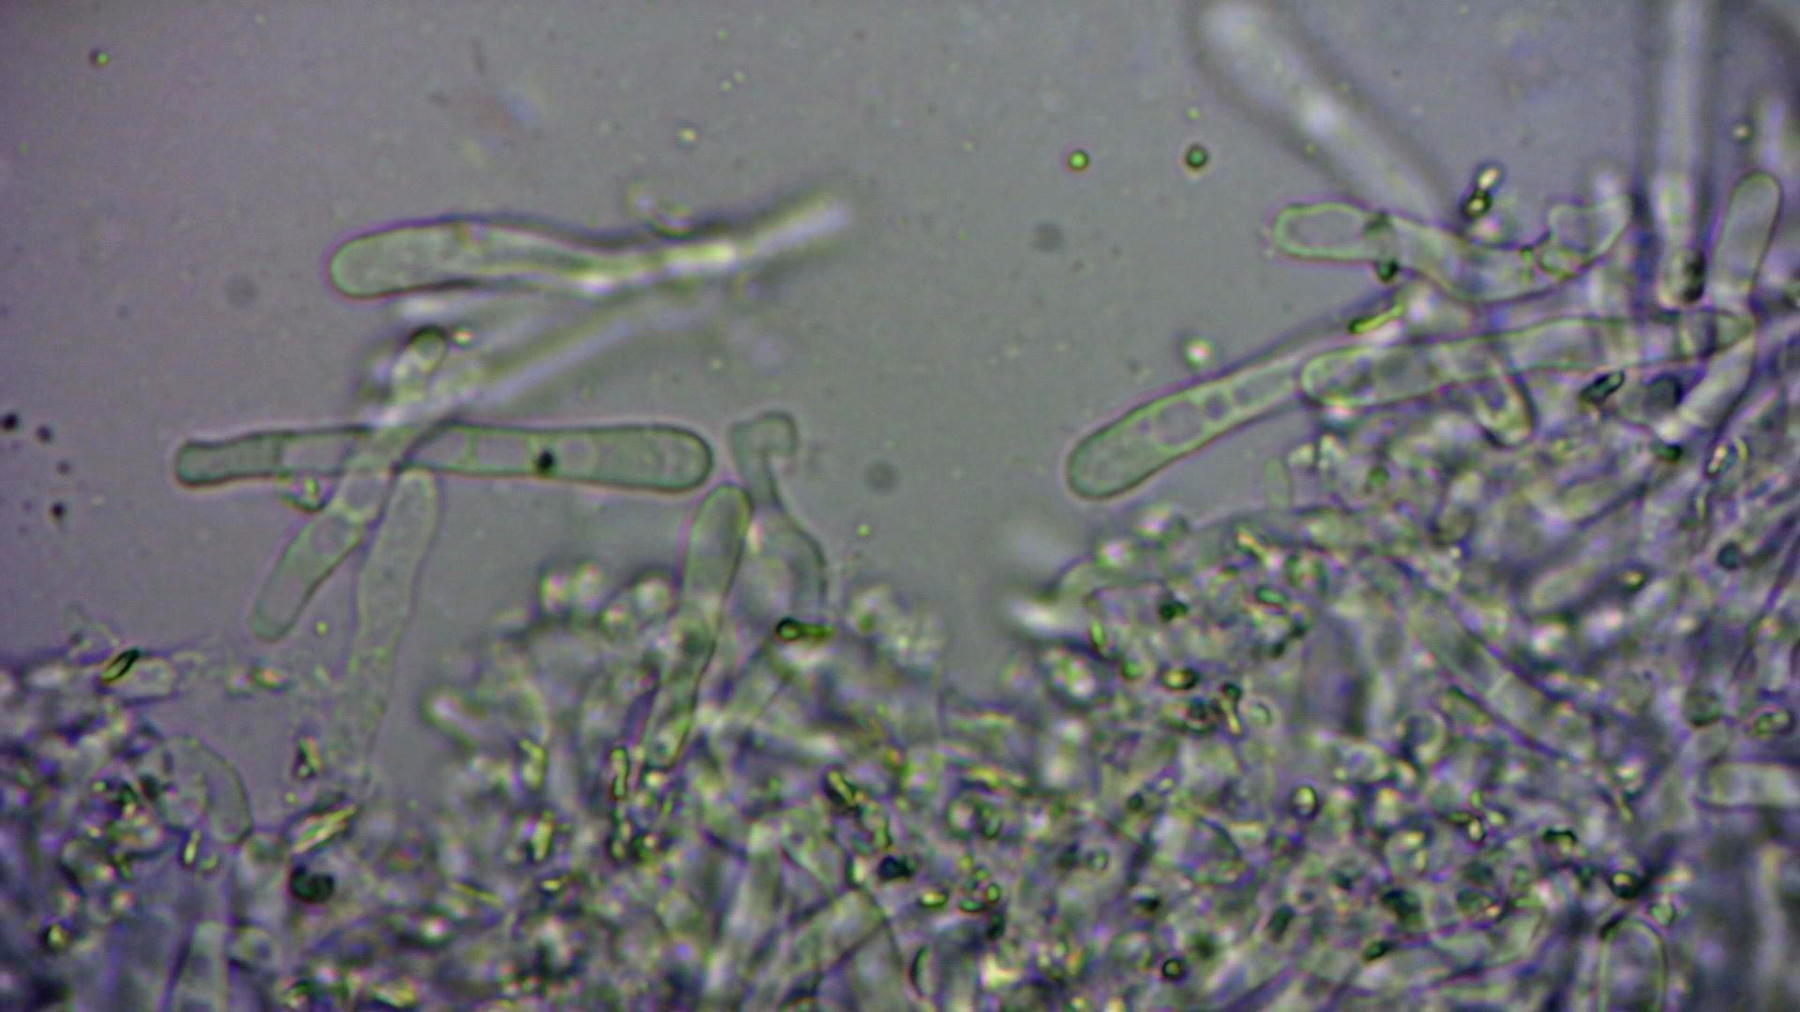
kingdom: Fungi
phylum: Basidiomycota
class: Agaricomycetes
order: Polyporales
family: Irpicaceae
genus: Efibula
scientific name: Efibula tuberculata
